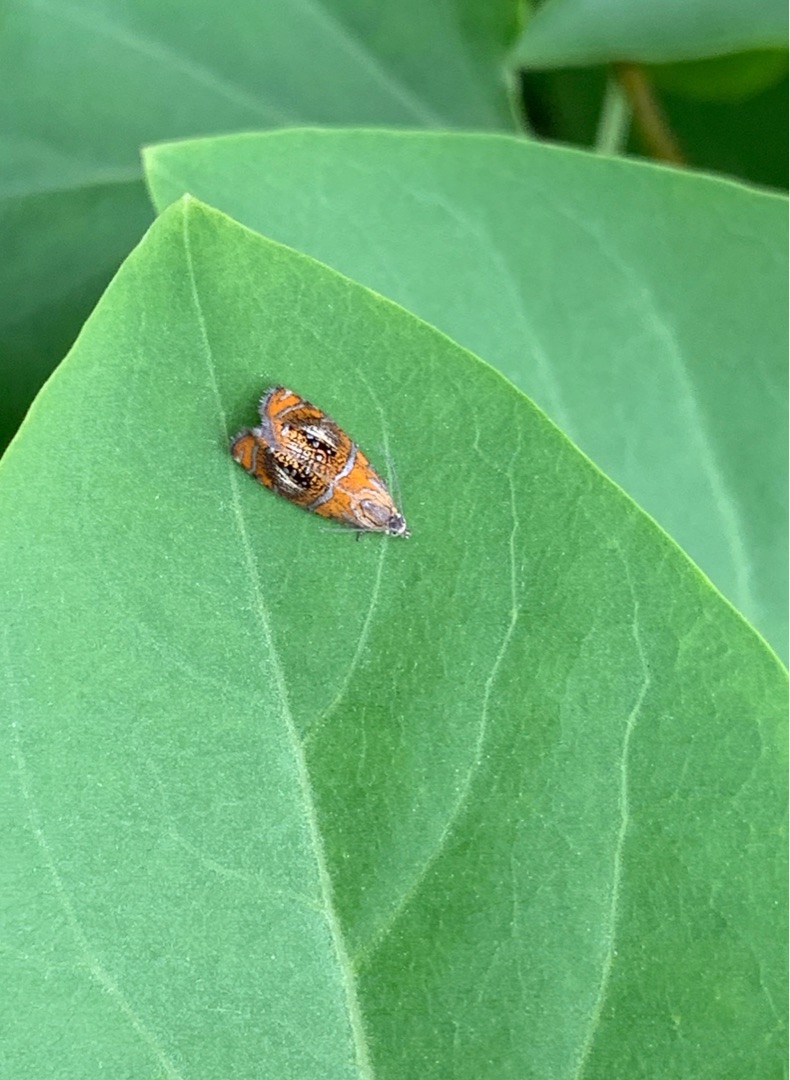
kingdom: Animalia
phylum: Arthropoda
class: Insecta
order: Lepidoptera
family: Tortricidae
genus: Olethreutes
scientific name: Olethreutes arcuella
